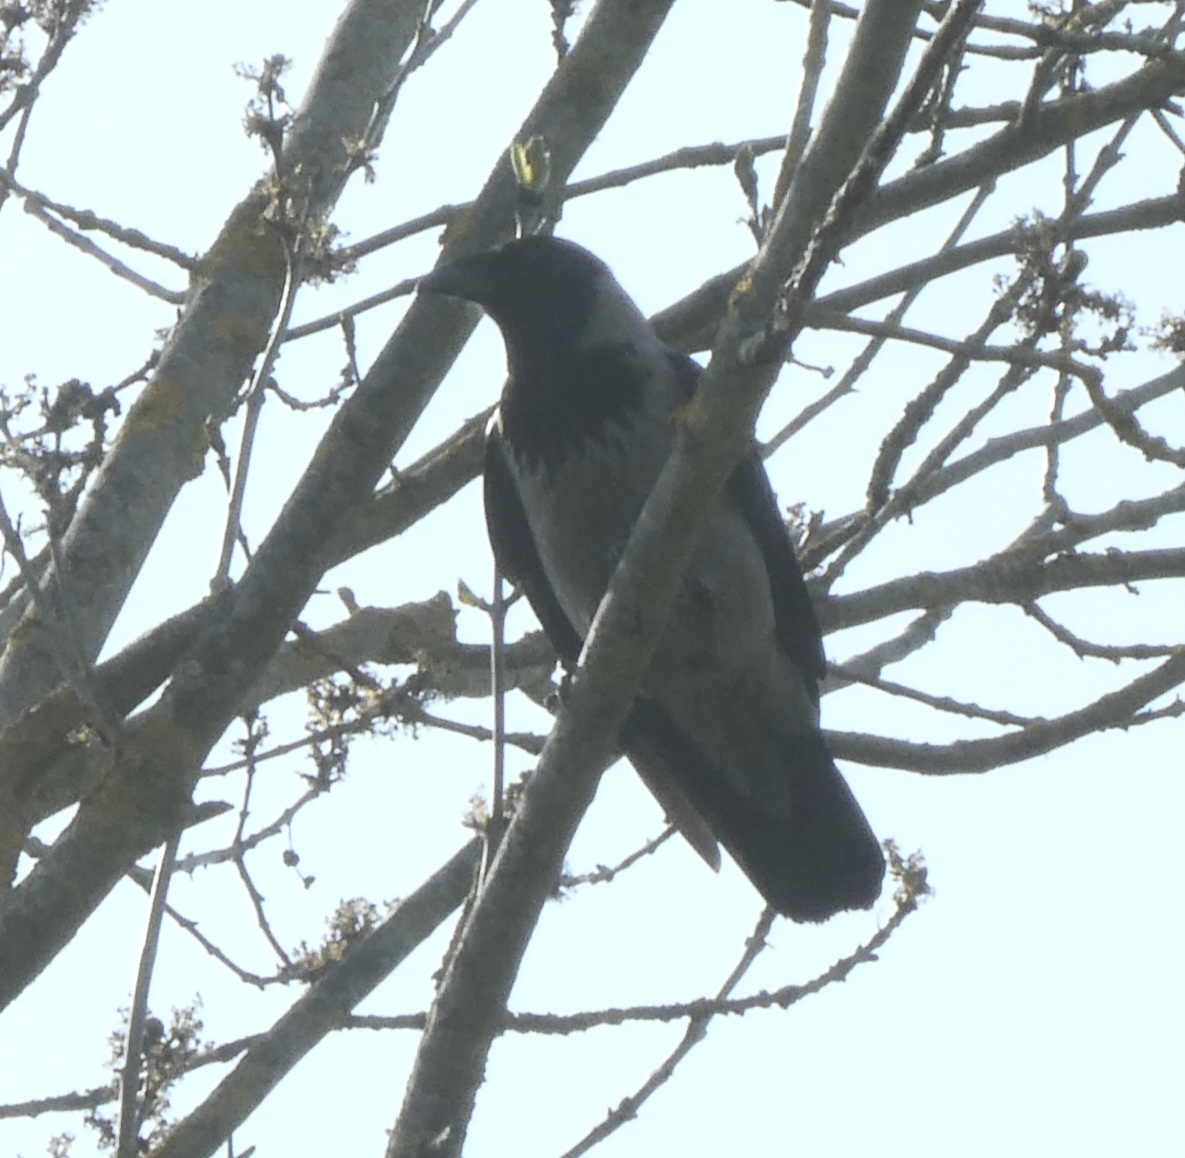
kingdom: Animalia
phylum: Chordata
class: Aves
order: Passeriformes
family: Corvidae
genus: Corvus
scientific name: Corvus cornix
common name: Gråkrage
